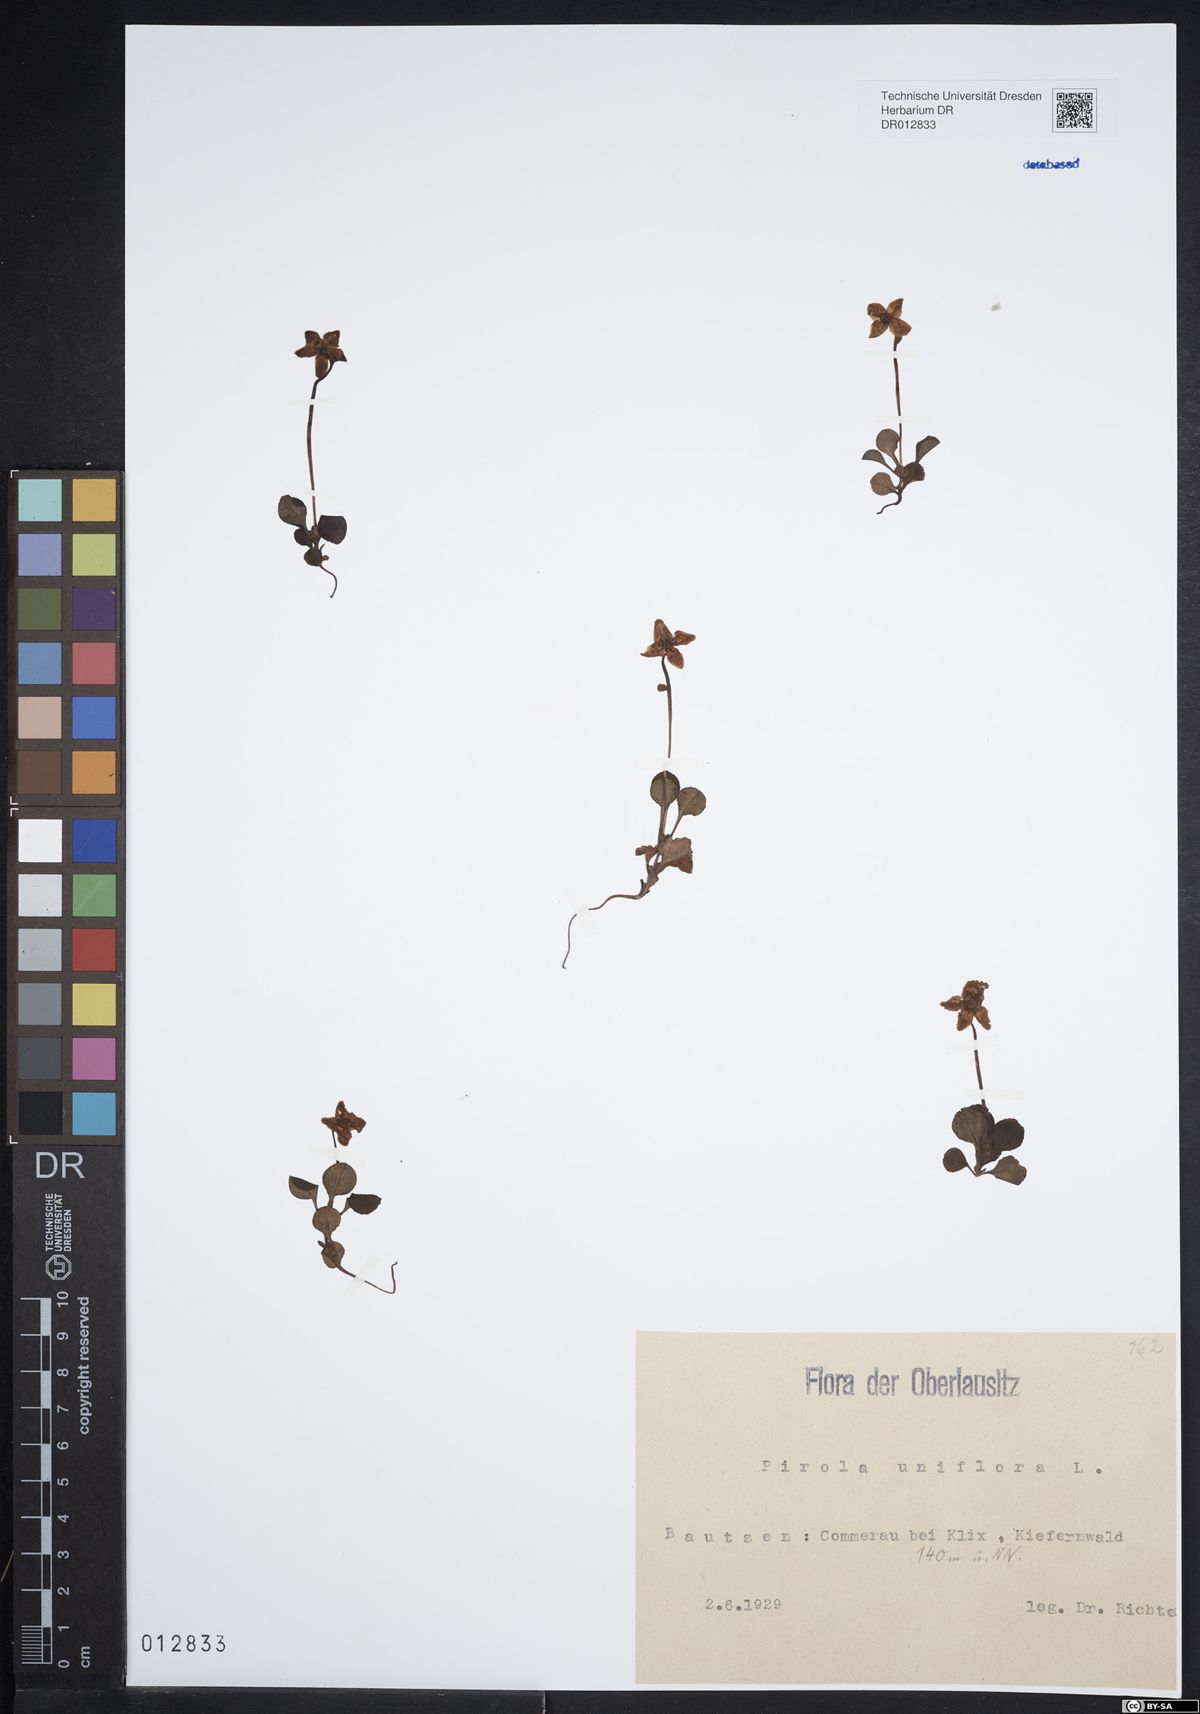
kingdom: Plantae
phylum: Tracheophyta
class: Magnoliopsida
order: Ericales
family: Ericaceae
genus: Moneses
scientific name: Moneses uniflora
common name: One-flowered wintergreen
